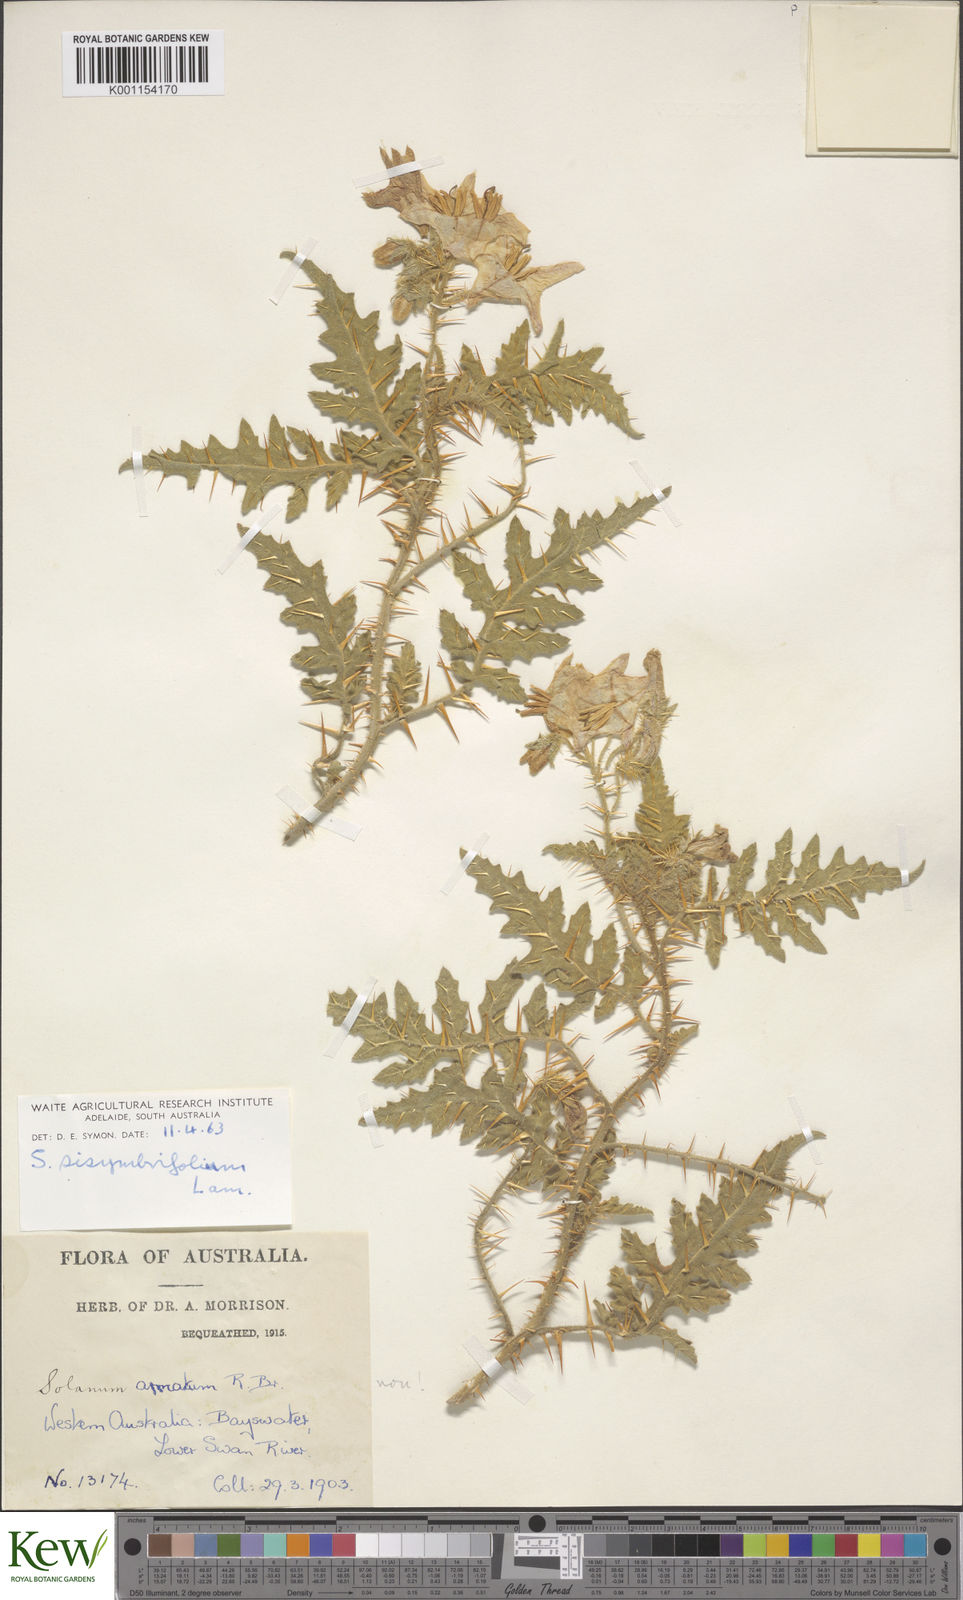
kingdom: Plantae
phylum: Tracheophyta
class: Magnoliopsida
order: Solanales
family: Solanaceae
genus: Solanum
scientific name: Solanum sisymbriifolium
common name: Red buffalo-bur
